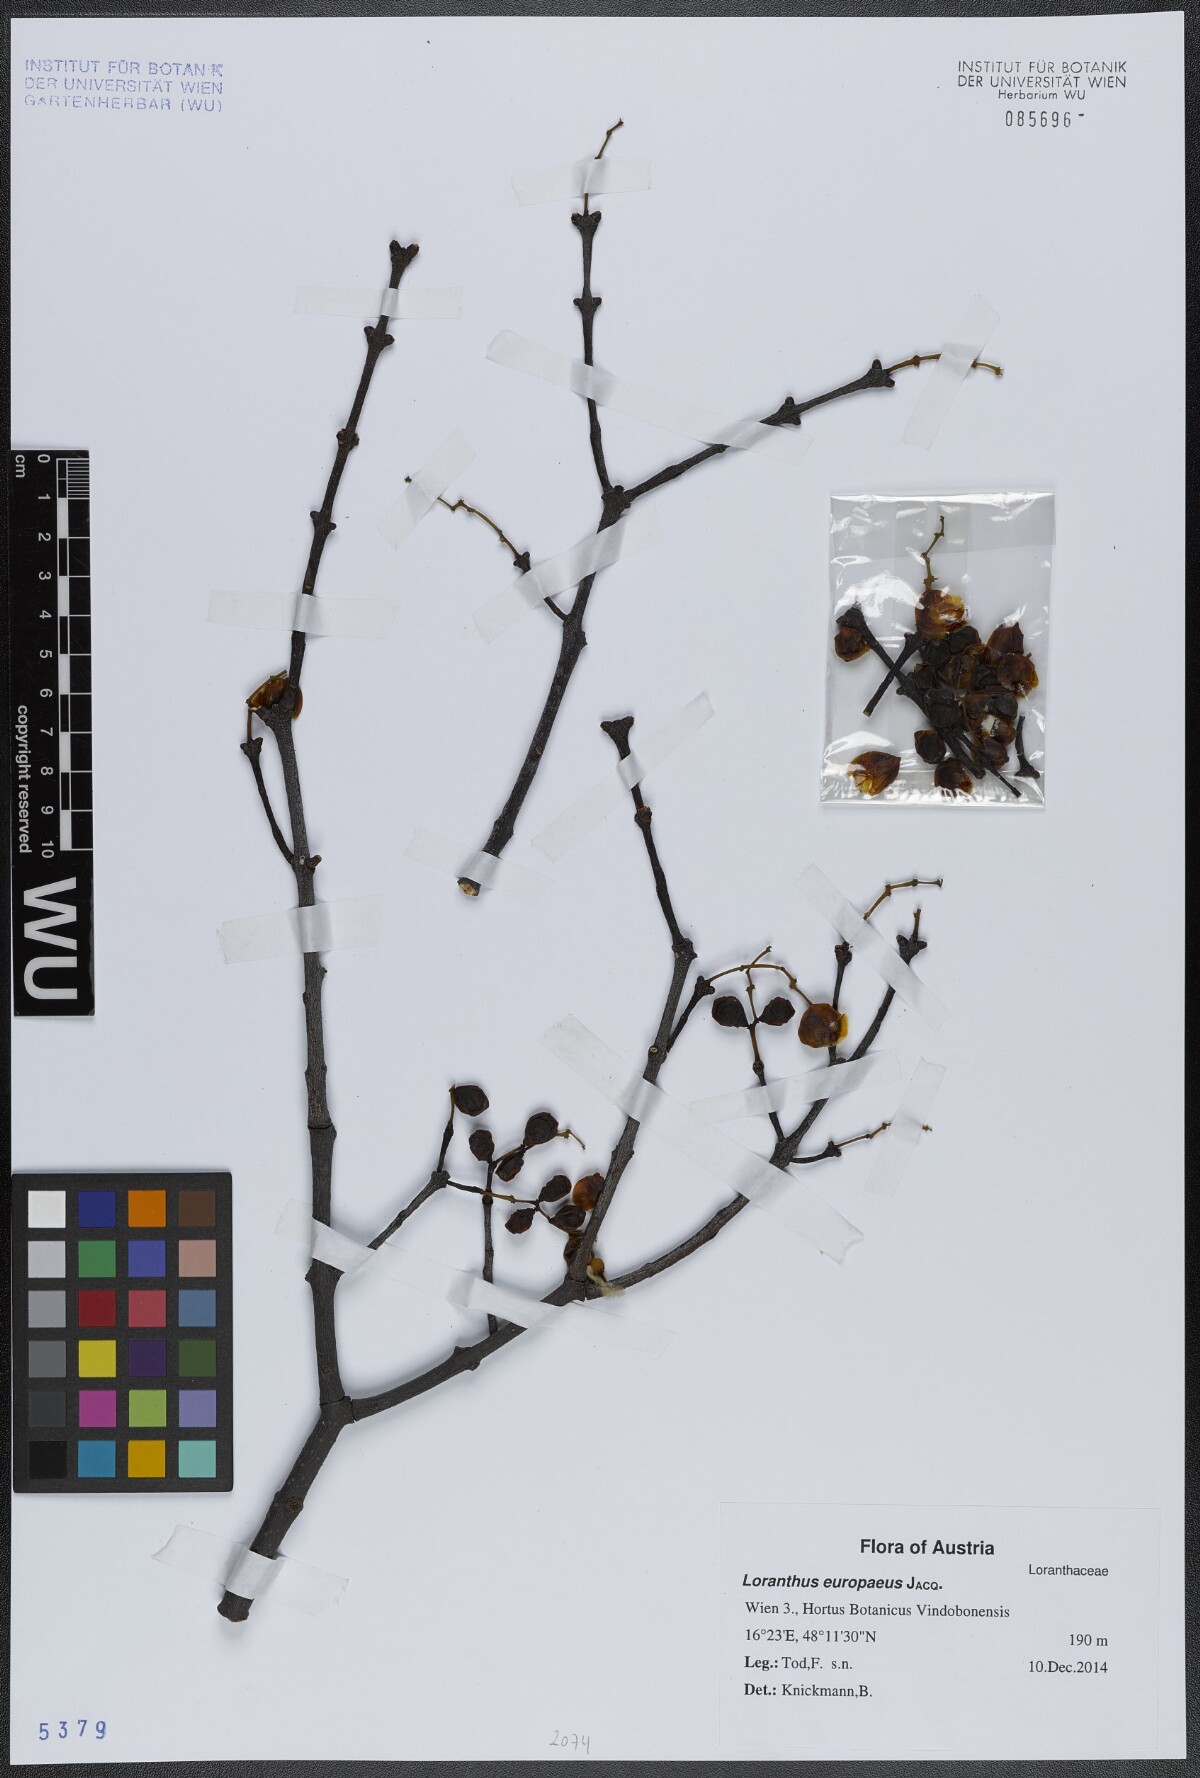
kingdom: Plantae
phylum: Tracheophyta
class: Magnoliopsida
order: Santalales
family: Loranthaceae
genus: Loranthus
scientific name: Loranthus europaeus
